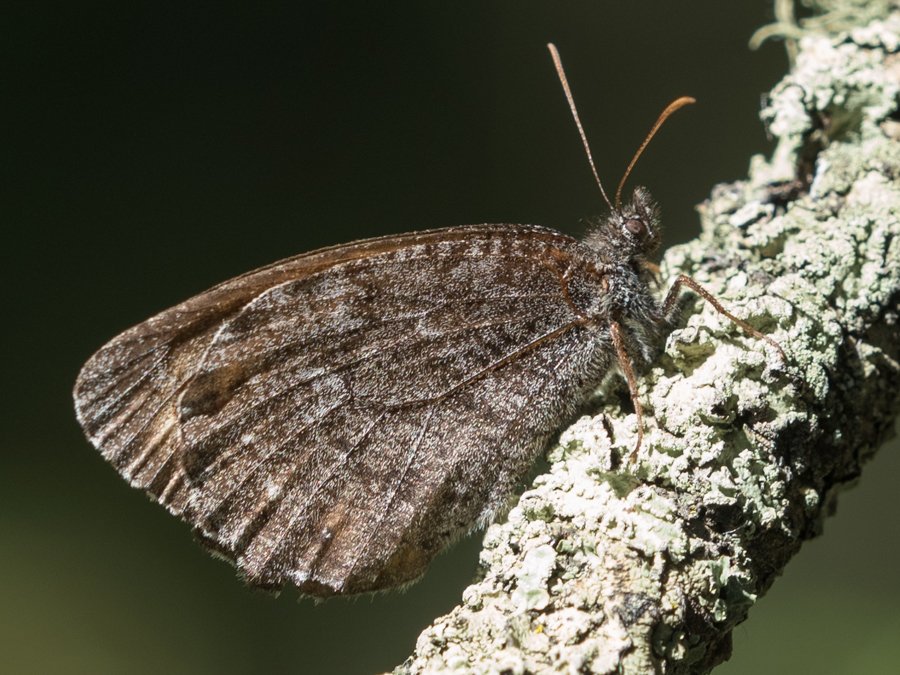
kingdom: Animalia
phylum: Arthropoda
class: Insecta
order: Lepidoptera
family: Nymphalidae
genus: Oeneis
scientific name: Oeneis jutta
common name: Jutta Arctic
